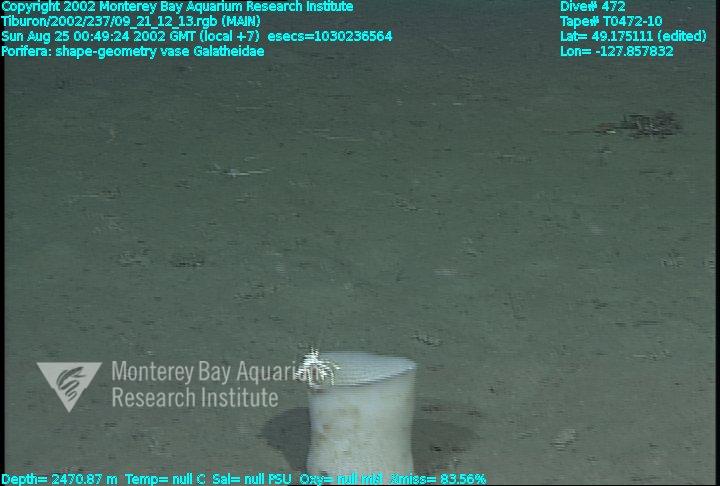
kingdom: Animalia
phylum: Porifera
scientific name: Porifera
